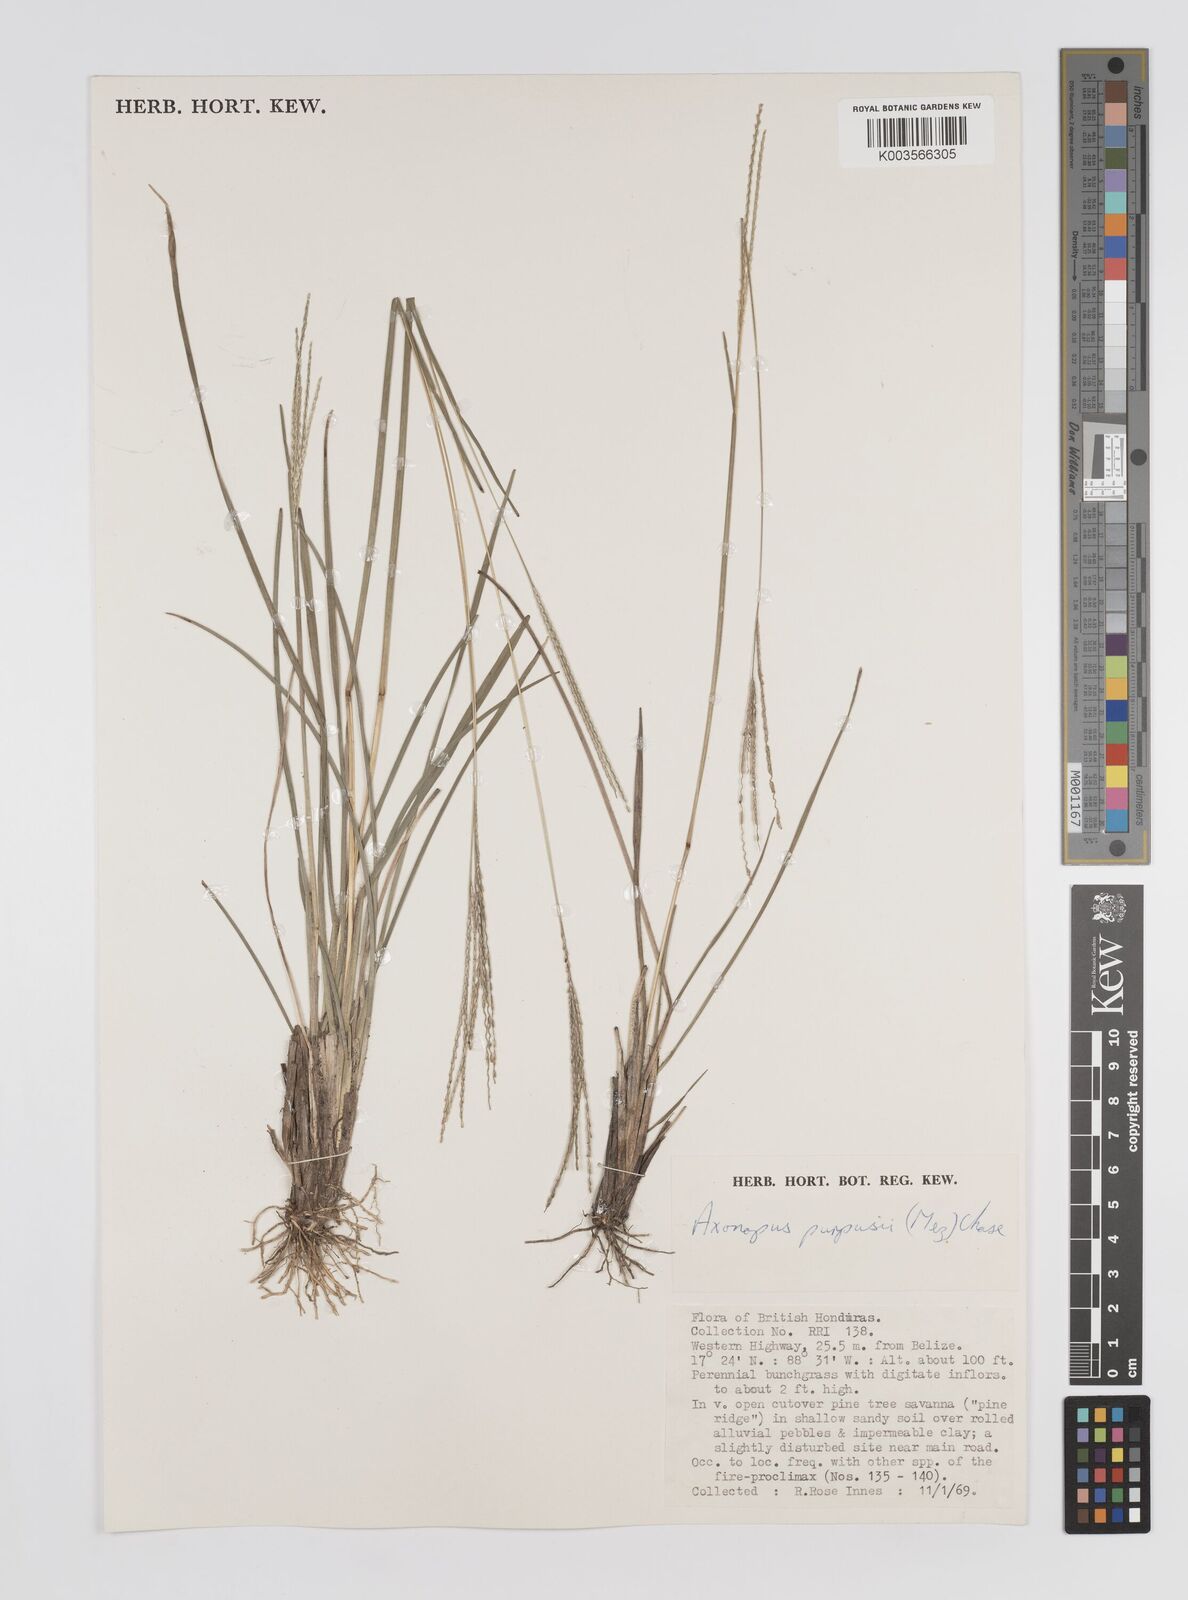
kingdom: Plantae
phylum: Tracheophyta
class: Liliopsida
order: Poales
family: Poaceae
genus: Axonopus
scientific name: Axonopus purpusii
